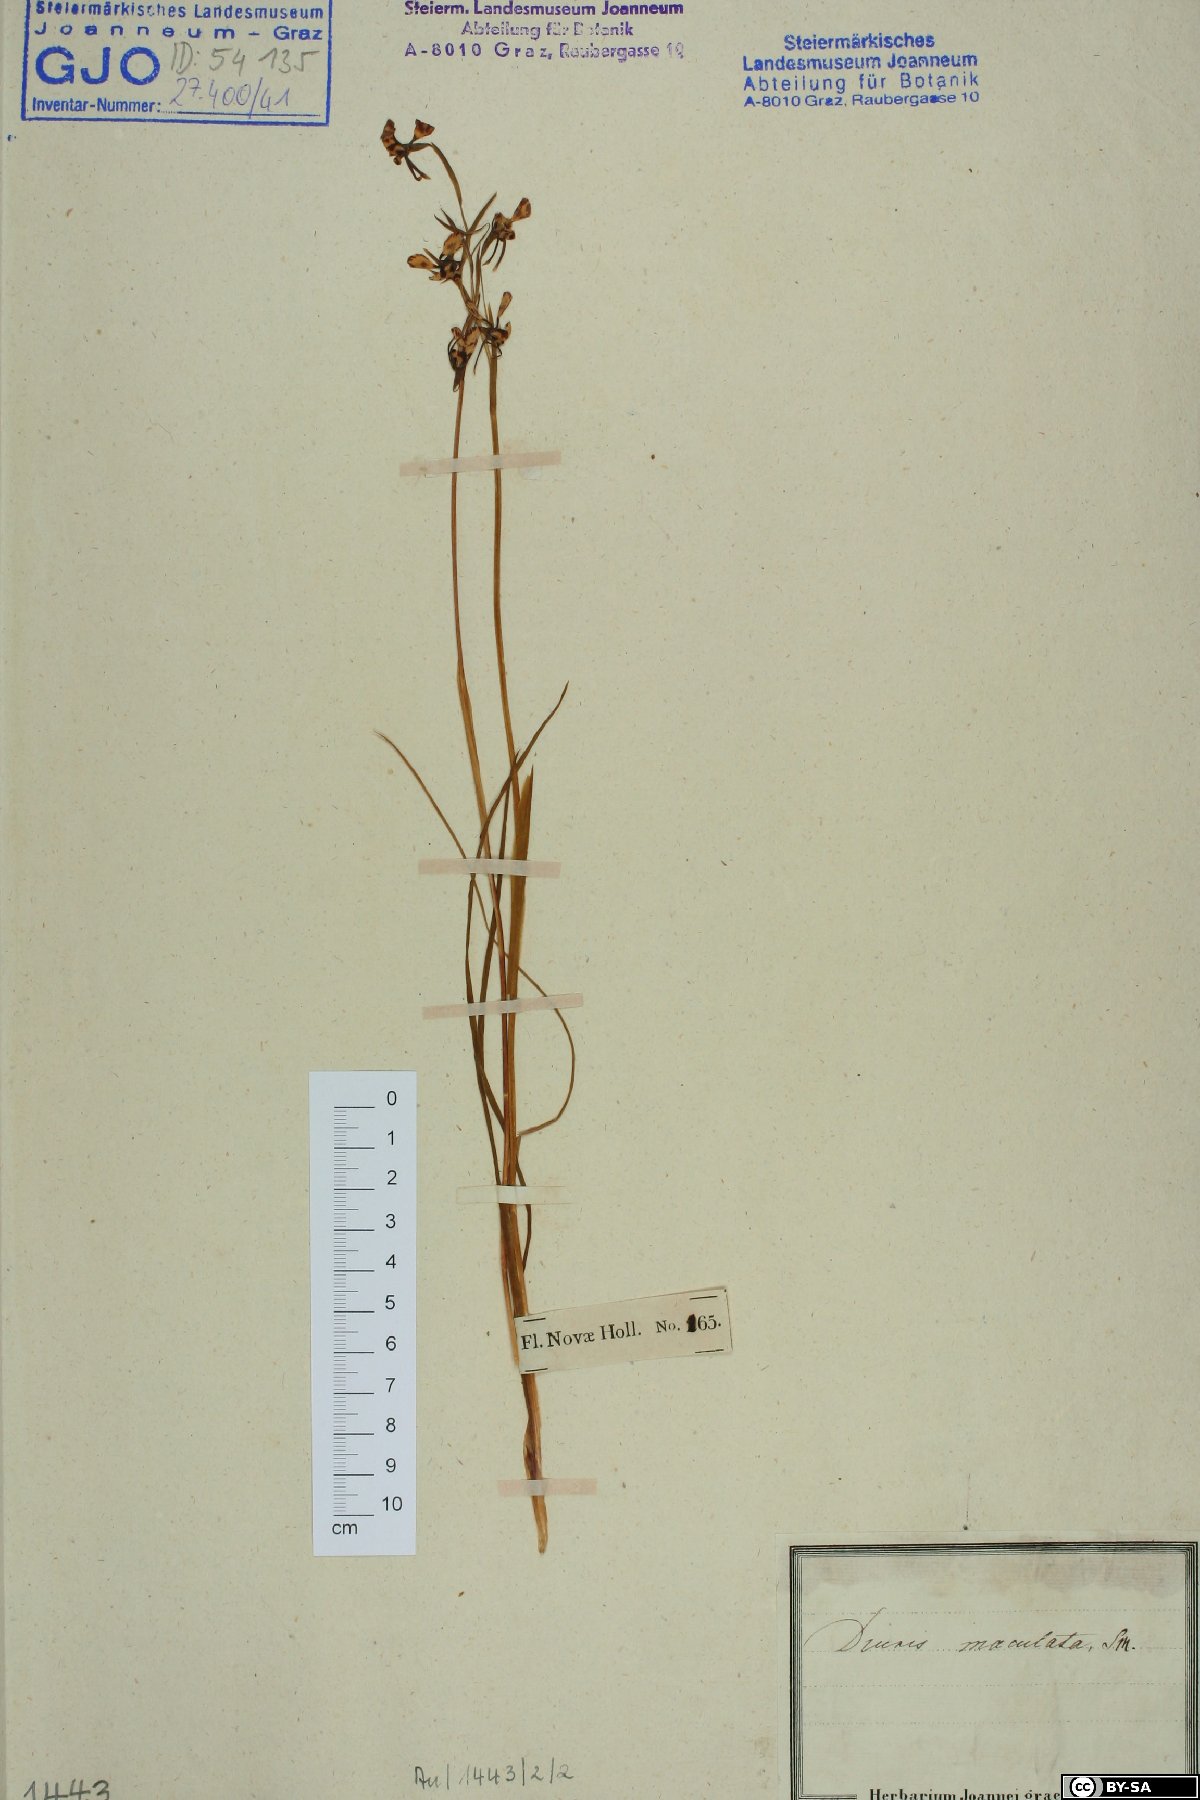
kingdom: Plantae
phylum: Tracheophyta
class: Liliopsida
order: Asparagales
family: Orchidaceae
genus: Diuris
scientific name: Diuris maculata
